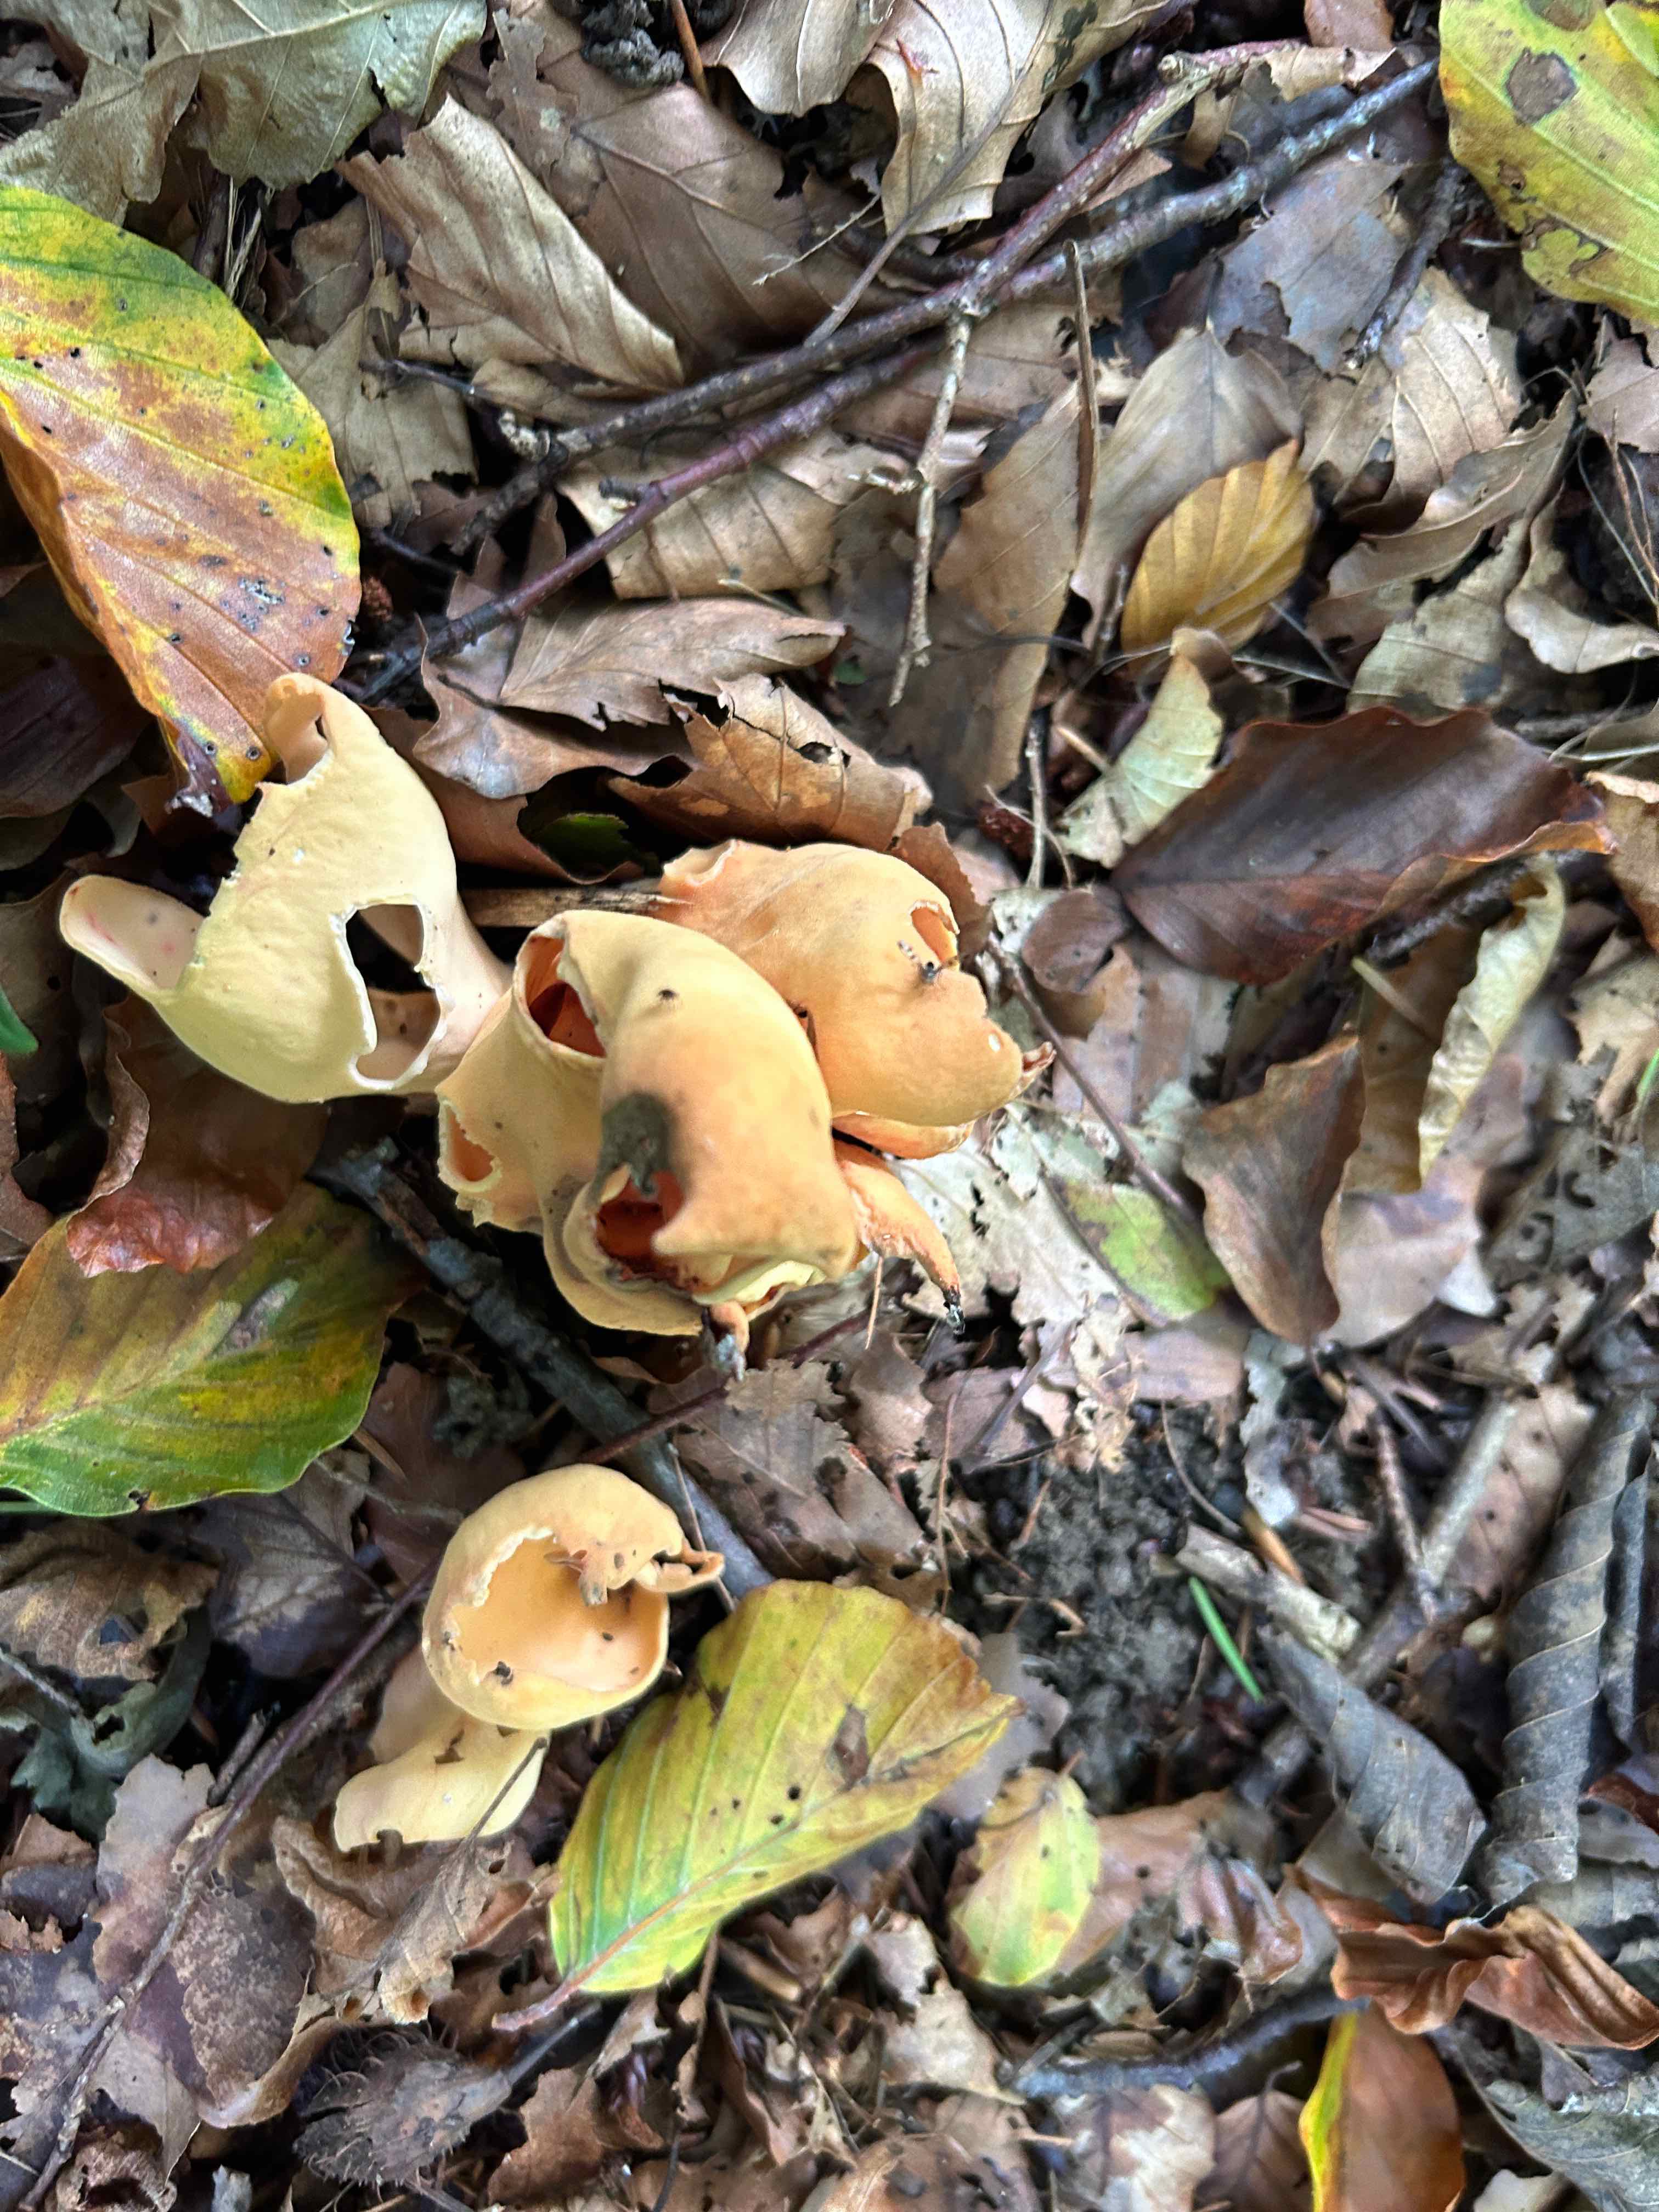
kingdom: Fungi
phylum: Ascomycota
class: Pezizomycetes
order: Pezizales
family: Otideaceae
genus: Otidea
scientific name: Otidea onotica
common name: æsel-ørebæger
